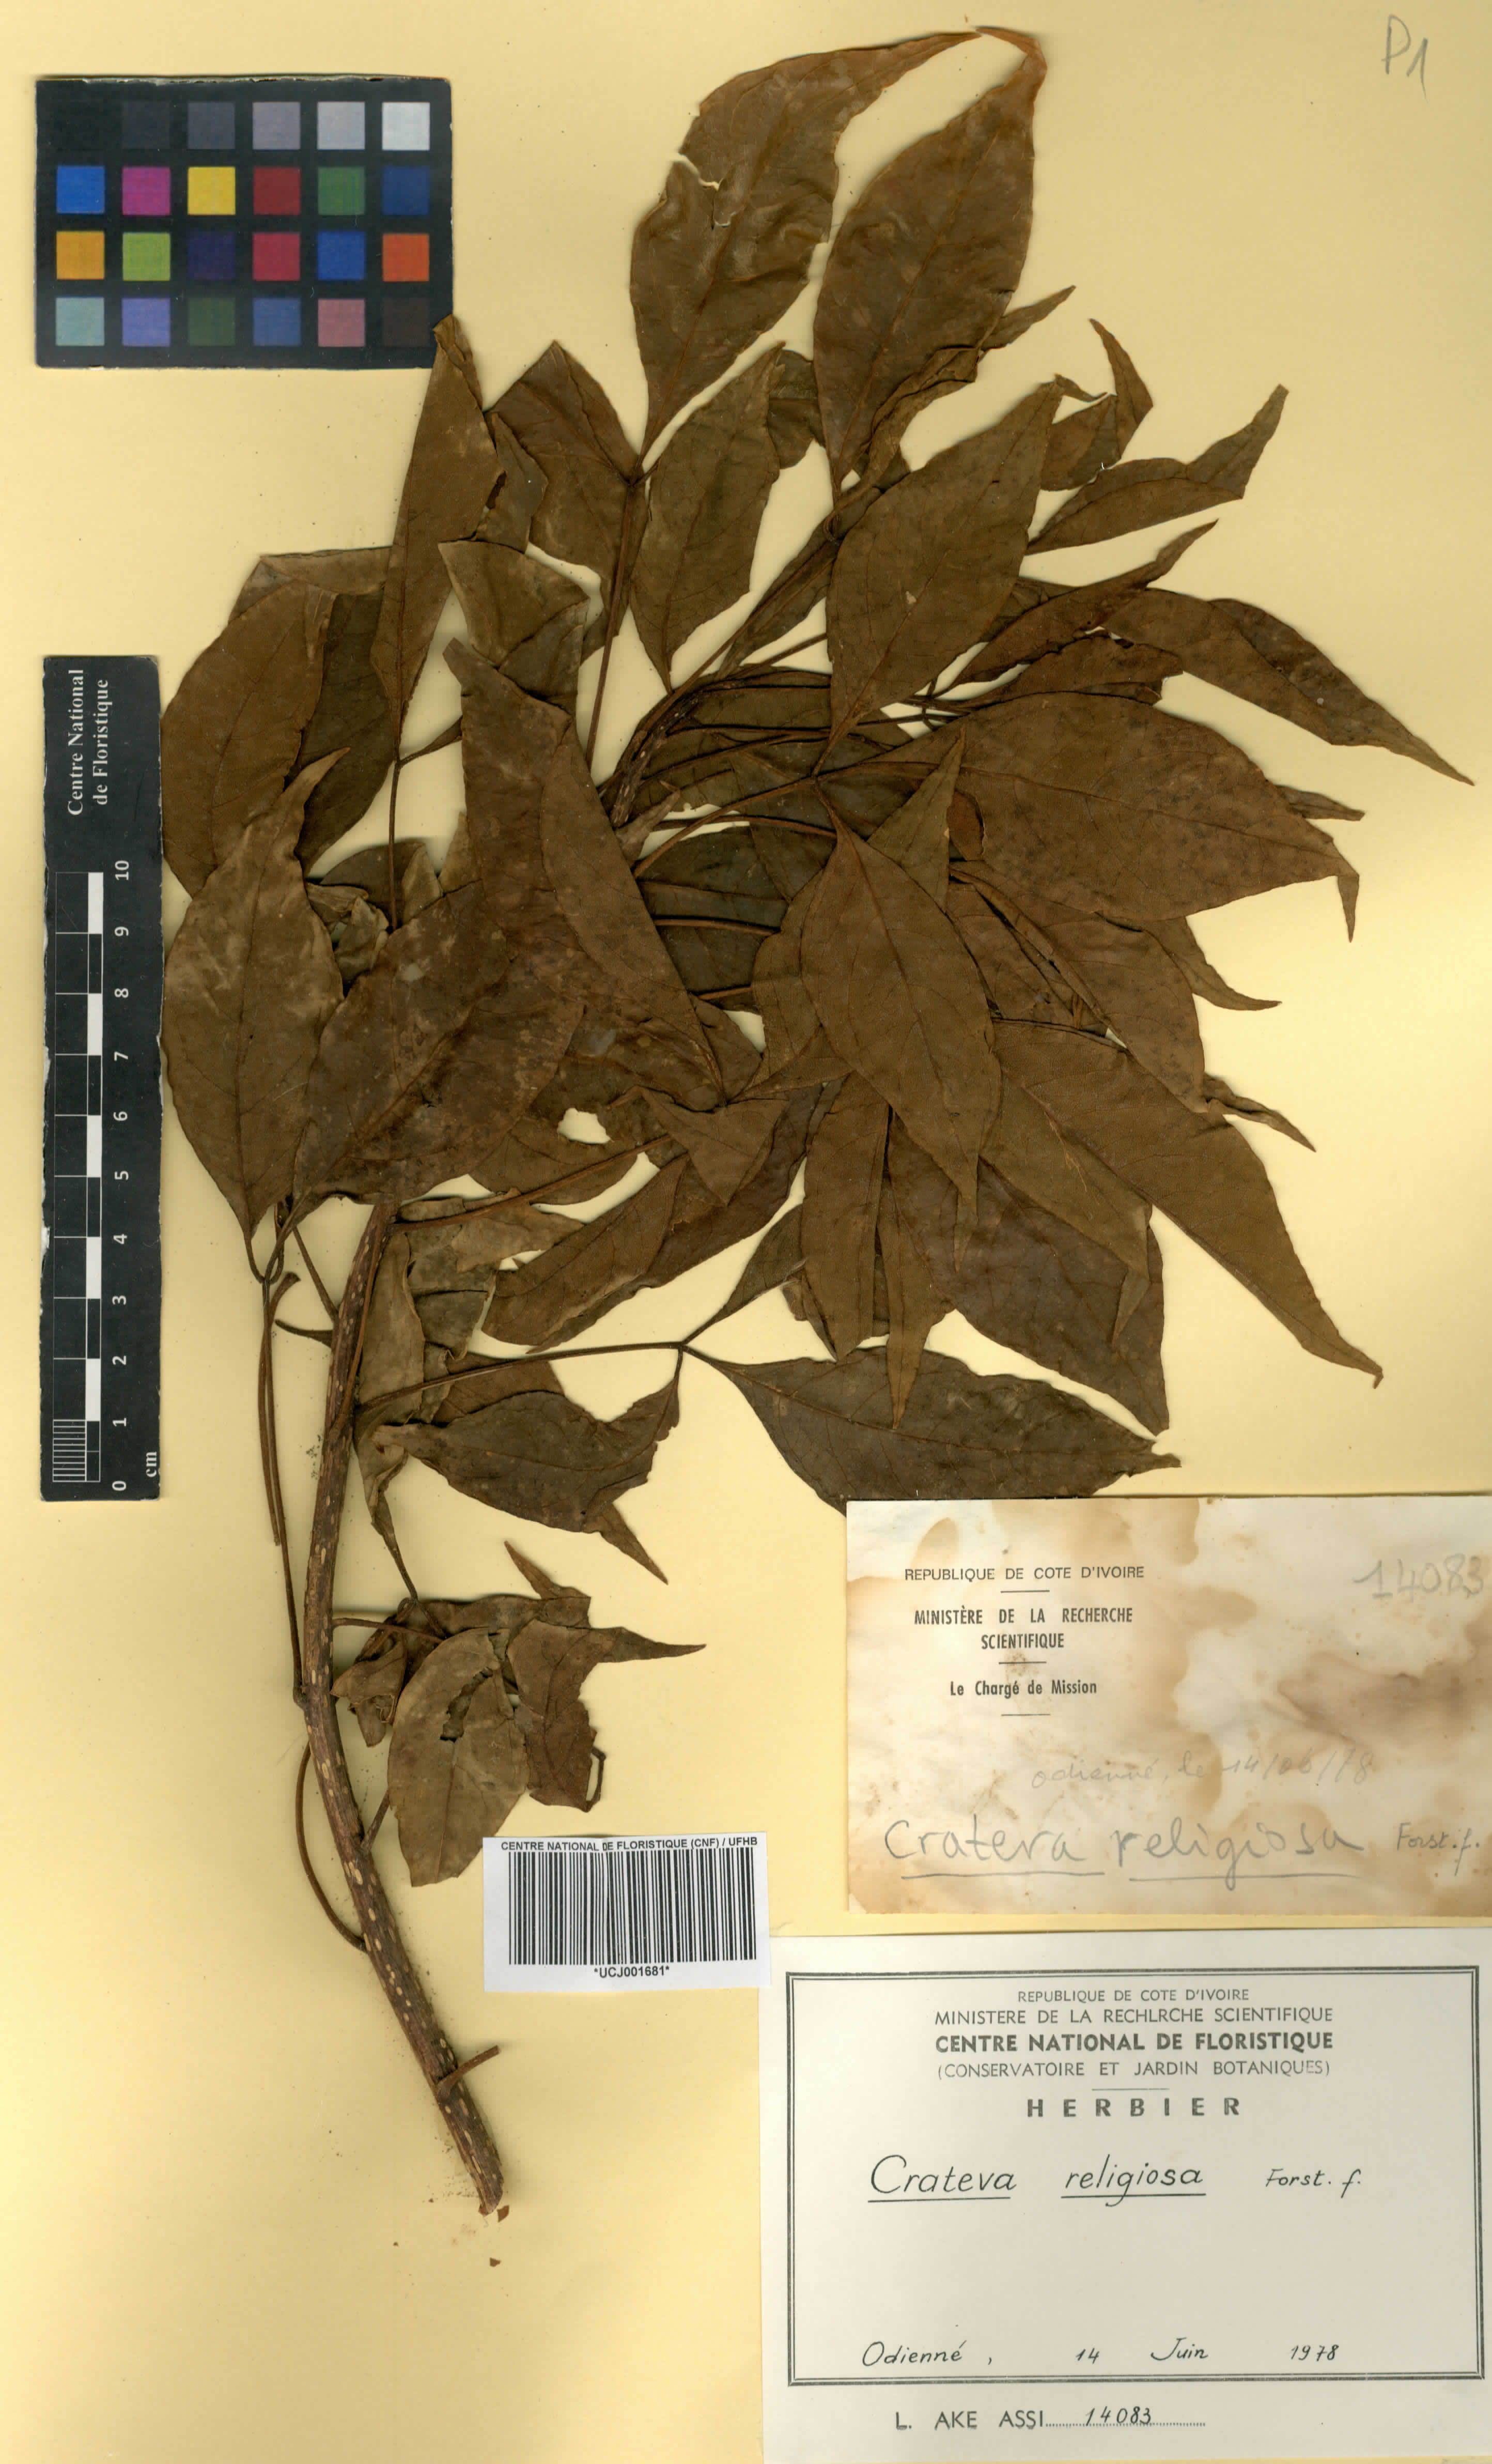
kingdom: Plantae
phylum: Tracheophyta
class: Magnoliopsida
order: Brassicales
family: Capparaceae
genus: Crateva
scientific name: Crateva religiosa
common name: March dalur
